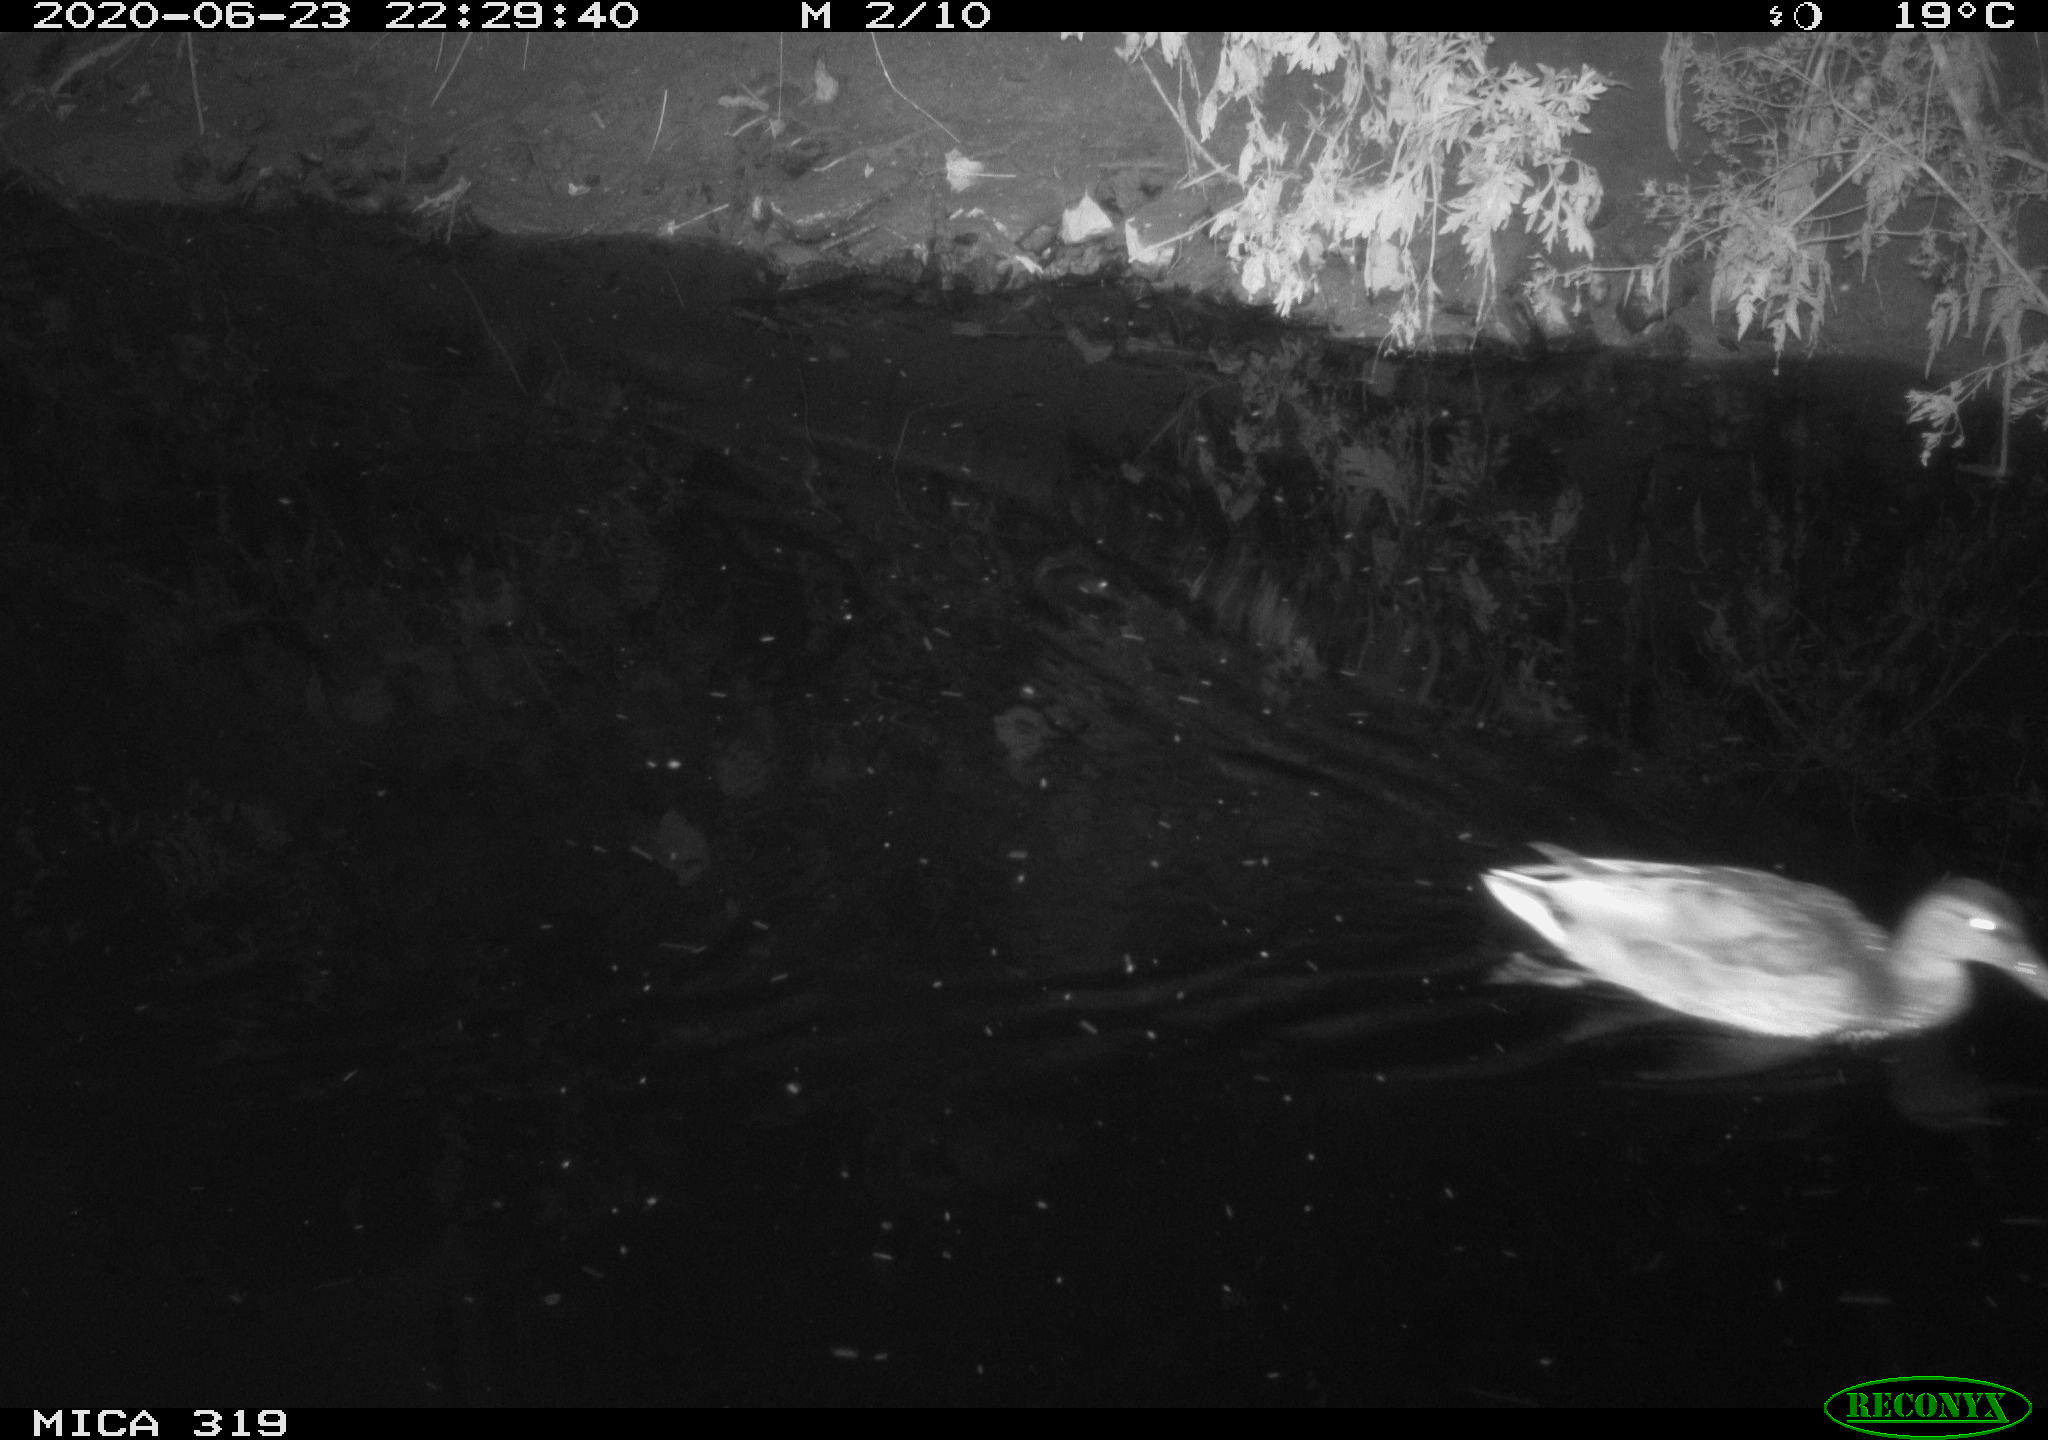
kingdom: Animalia
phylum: Chordata
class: Aves
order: Anseriformes
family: Anatidae
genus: Anas
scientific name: Anas platyrhynchos
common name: Mallard
